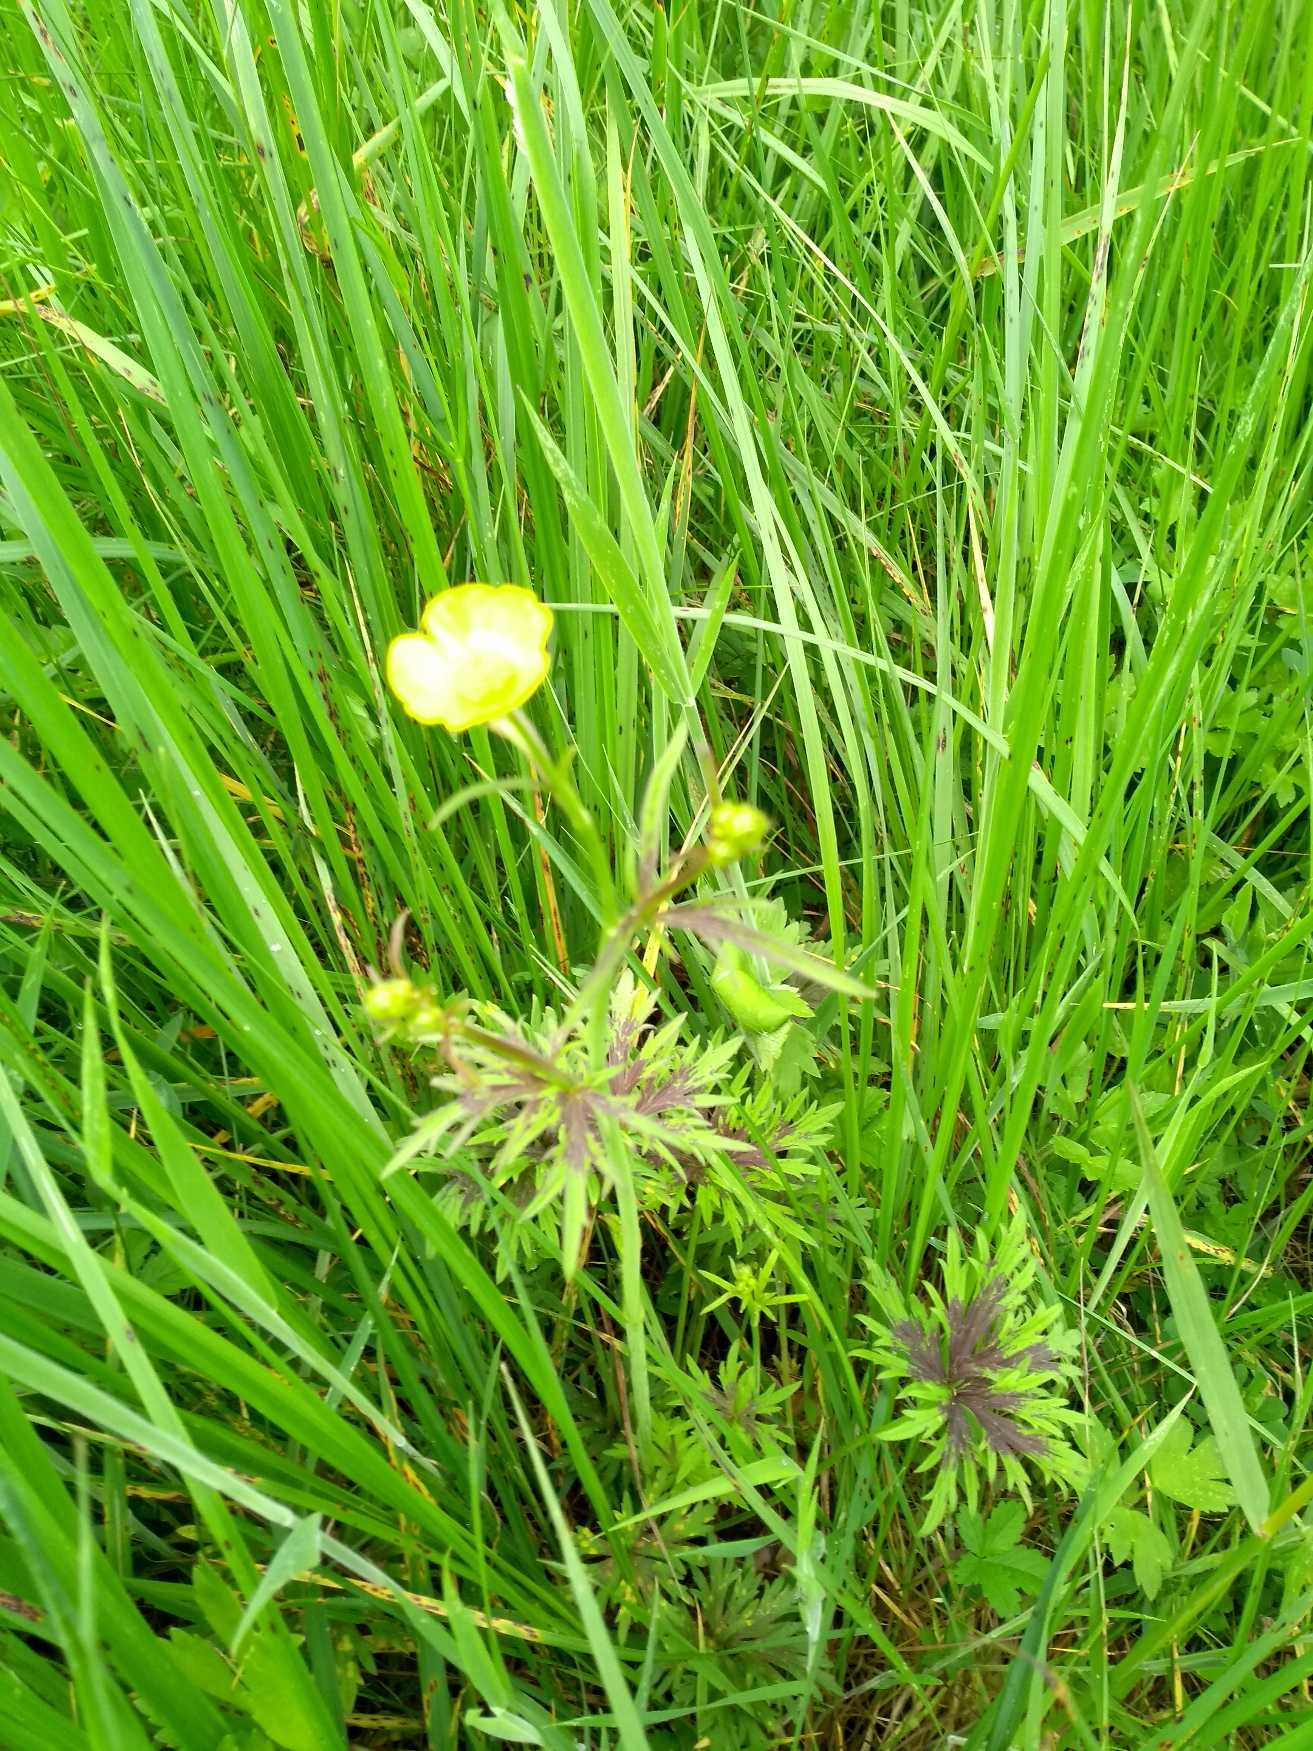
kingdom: Plantae
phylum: Tracheophyta
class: Magnoliopsida
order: Ranunculales
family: Ranunculaceae
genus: Ranunculus
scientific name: Ranunculus acris
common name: Bidende ranunkel
